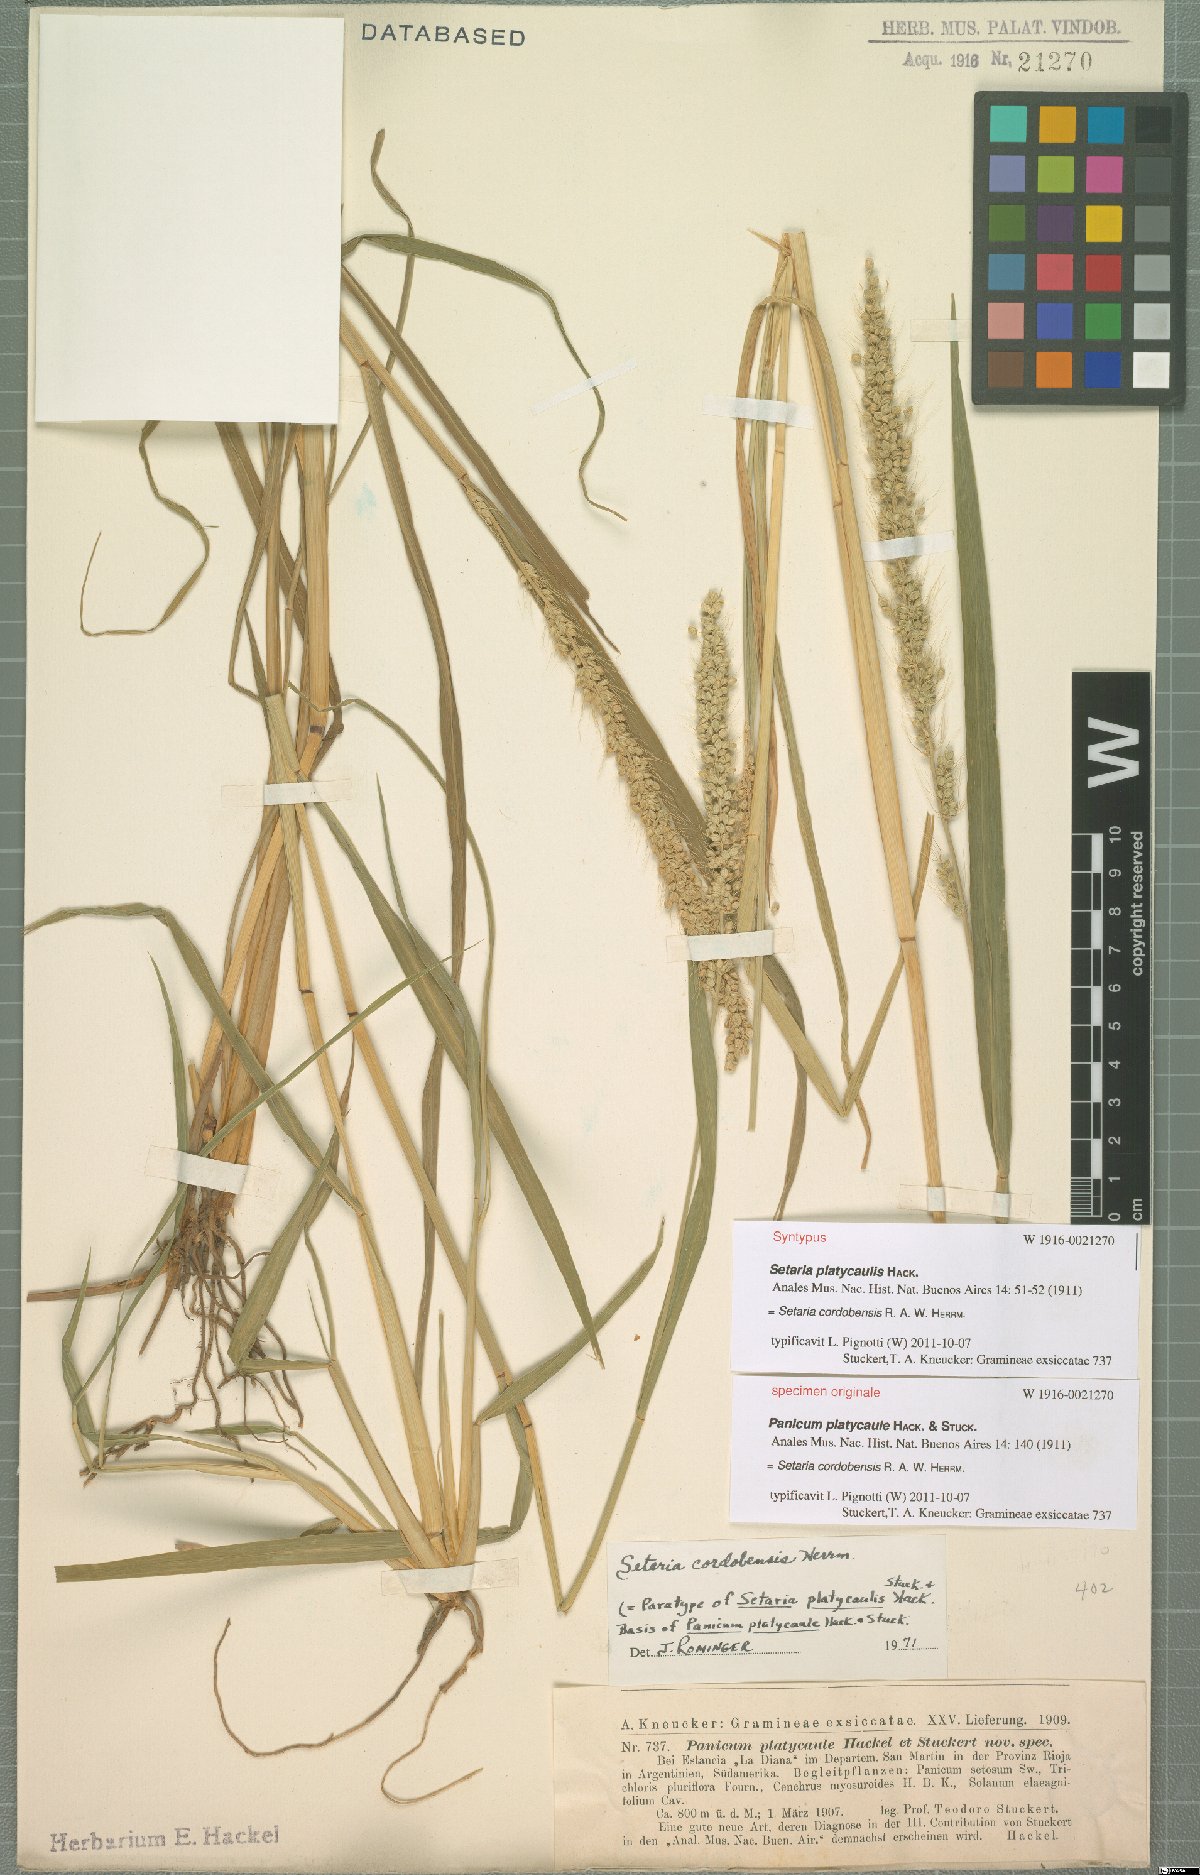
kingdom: Plantae
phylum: Tracheophyta
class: Liliopsida
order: Poales
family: Poaceae
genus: Setaria
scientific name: Setaria cordobensis
